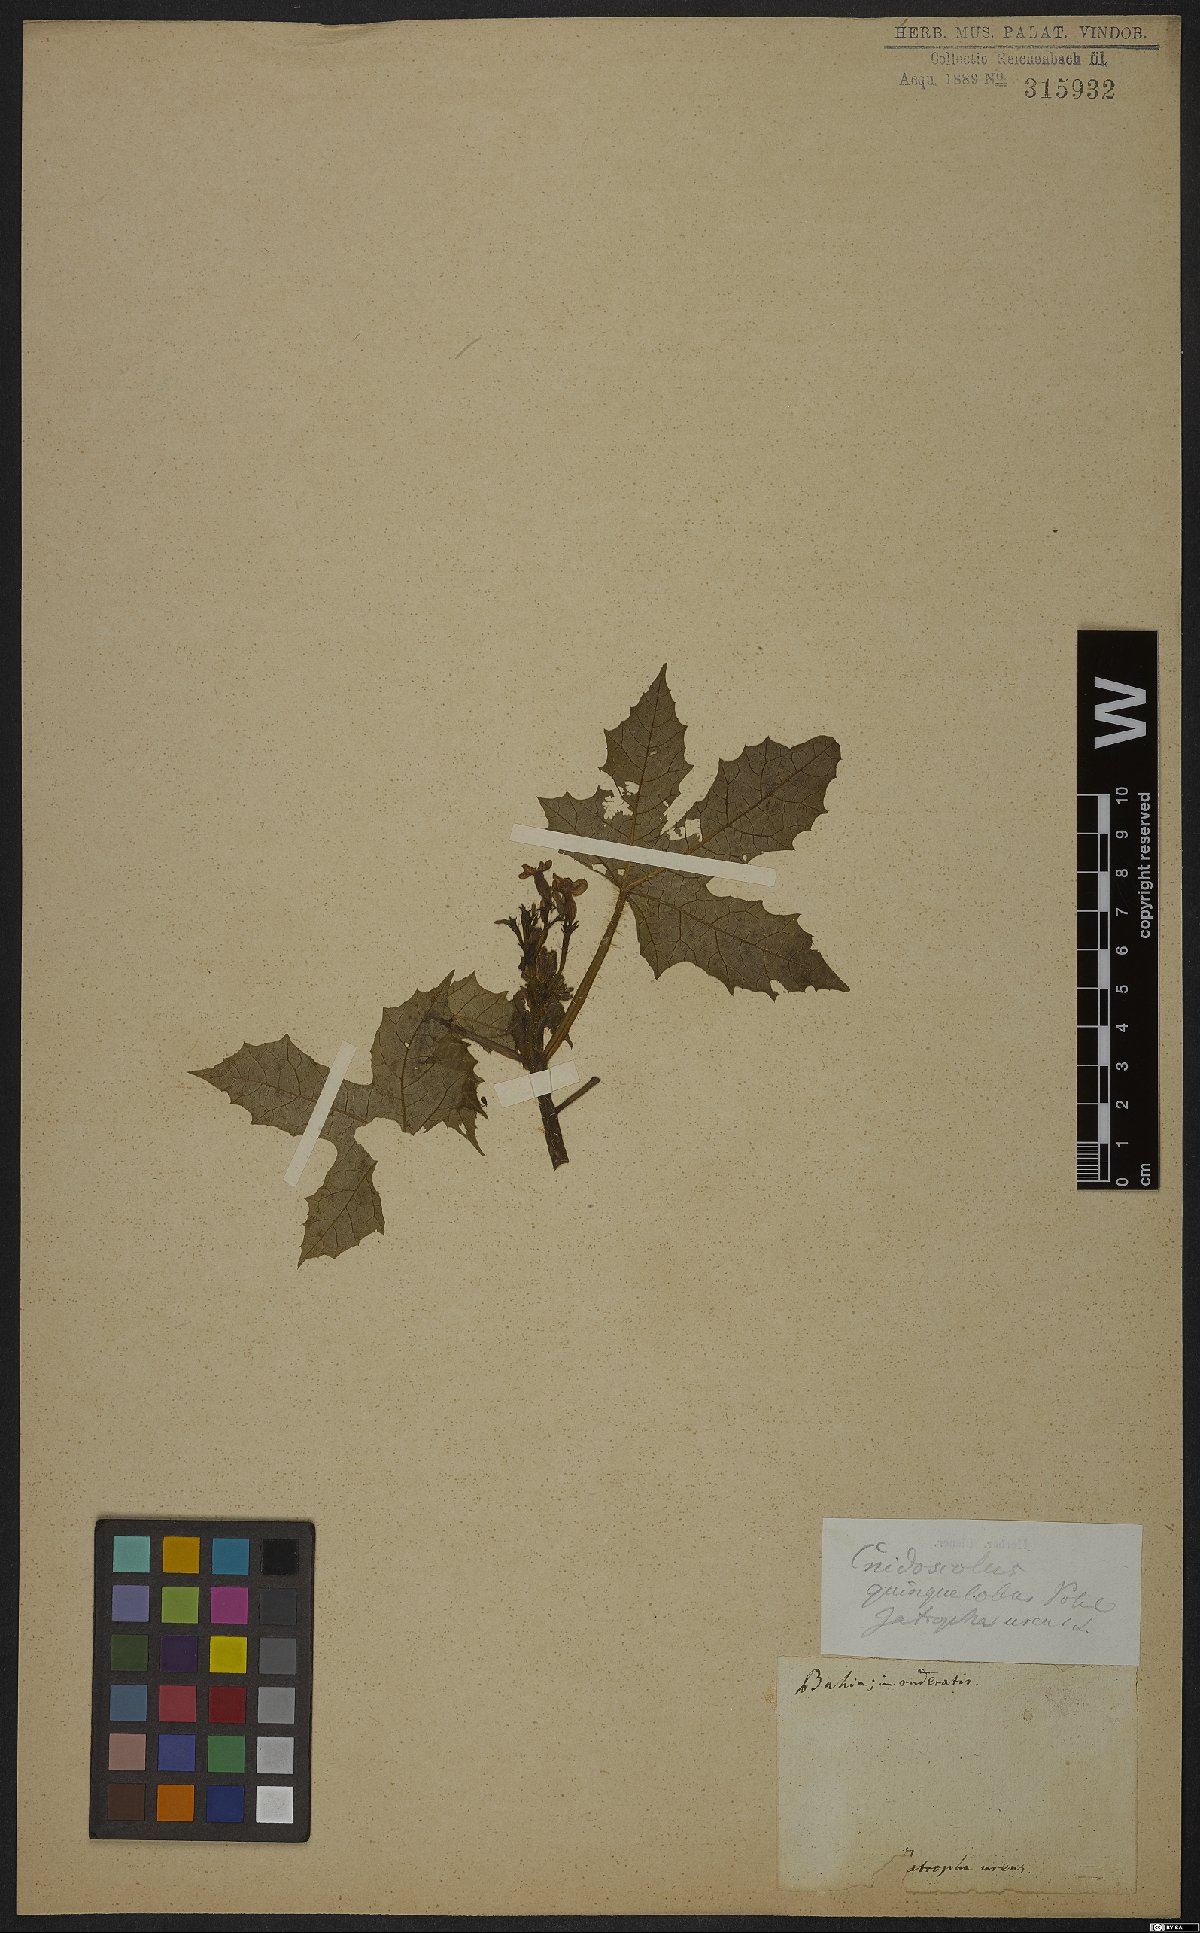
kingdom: Plantae
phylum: Tracheophyta
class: Magnoliopsida
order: Malpighiales
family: Euphorbiaceae
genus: Cnidoscolus
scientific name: Cnidoscolus stimulosus
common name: Bull-nettle
